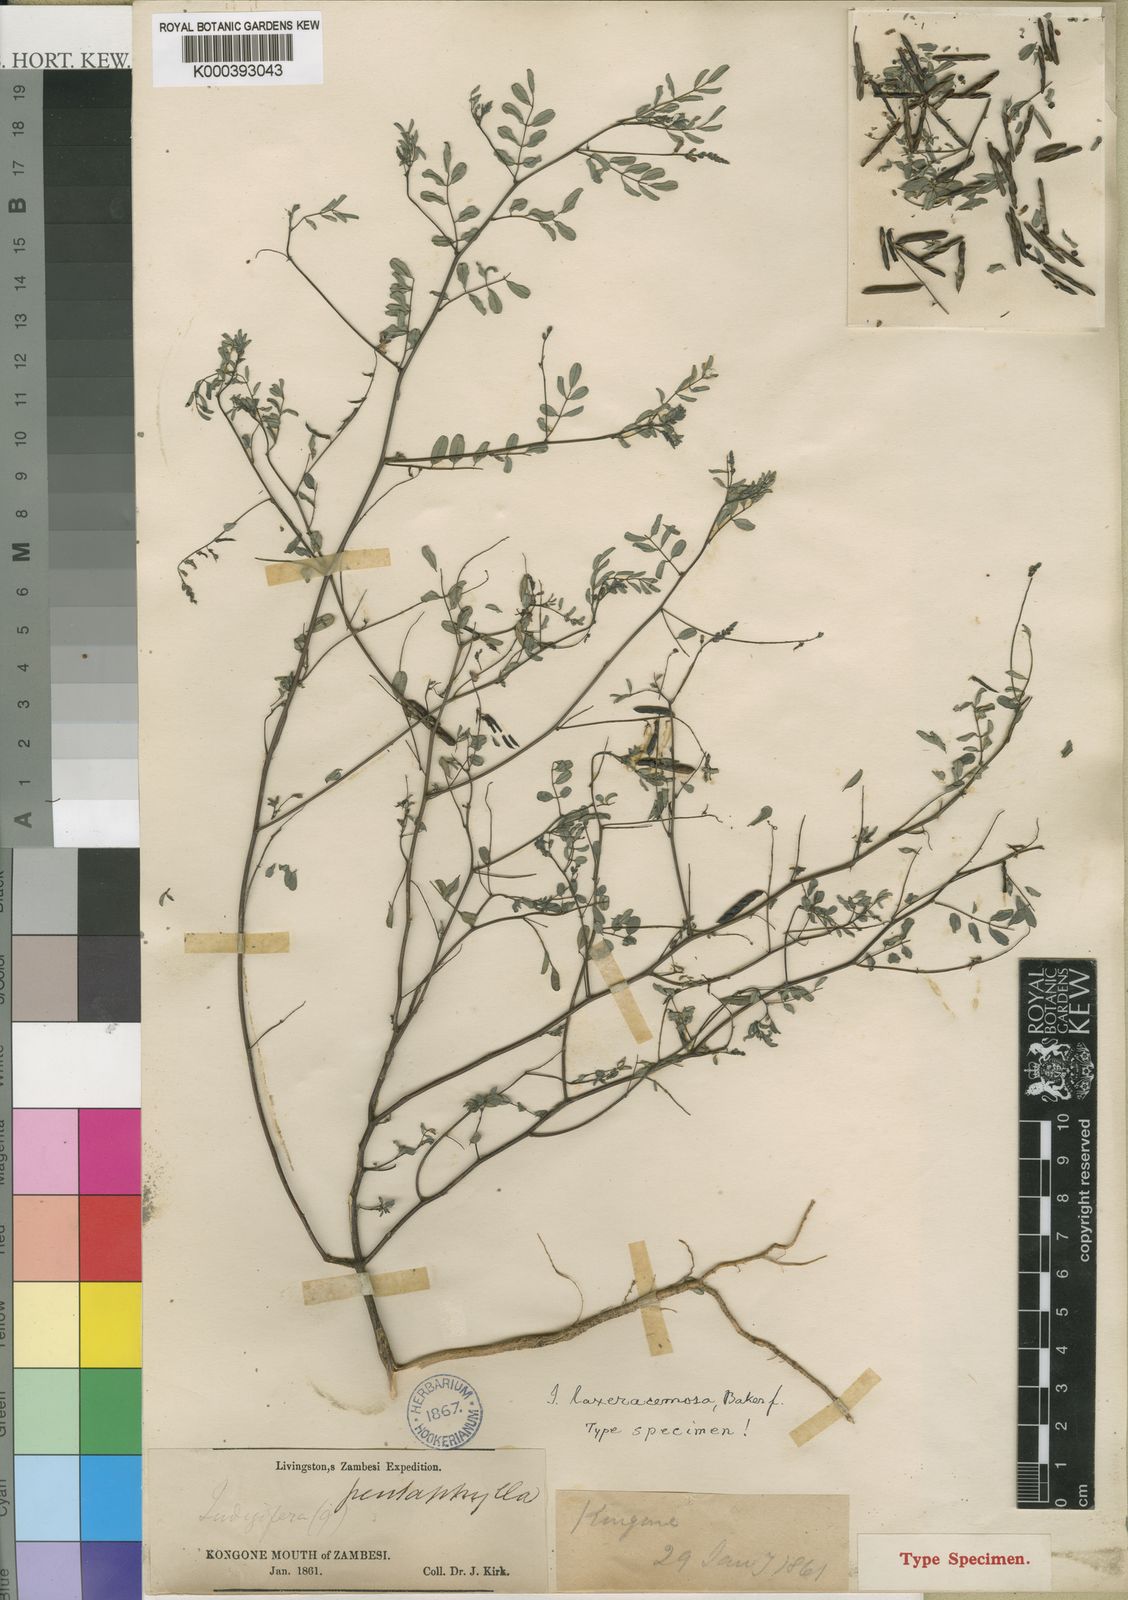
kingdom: Plantae
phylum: Tracheophyta
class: Magnoliopsida
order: Fabales
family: Fabaceae
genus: Indigofera
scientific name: Indigofera laxeracemosa
